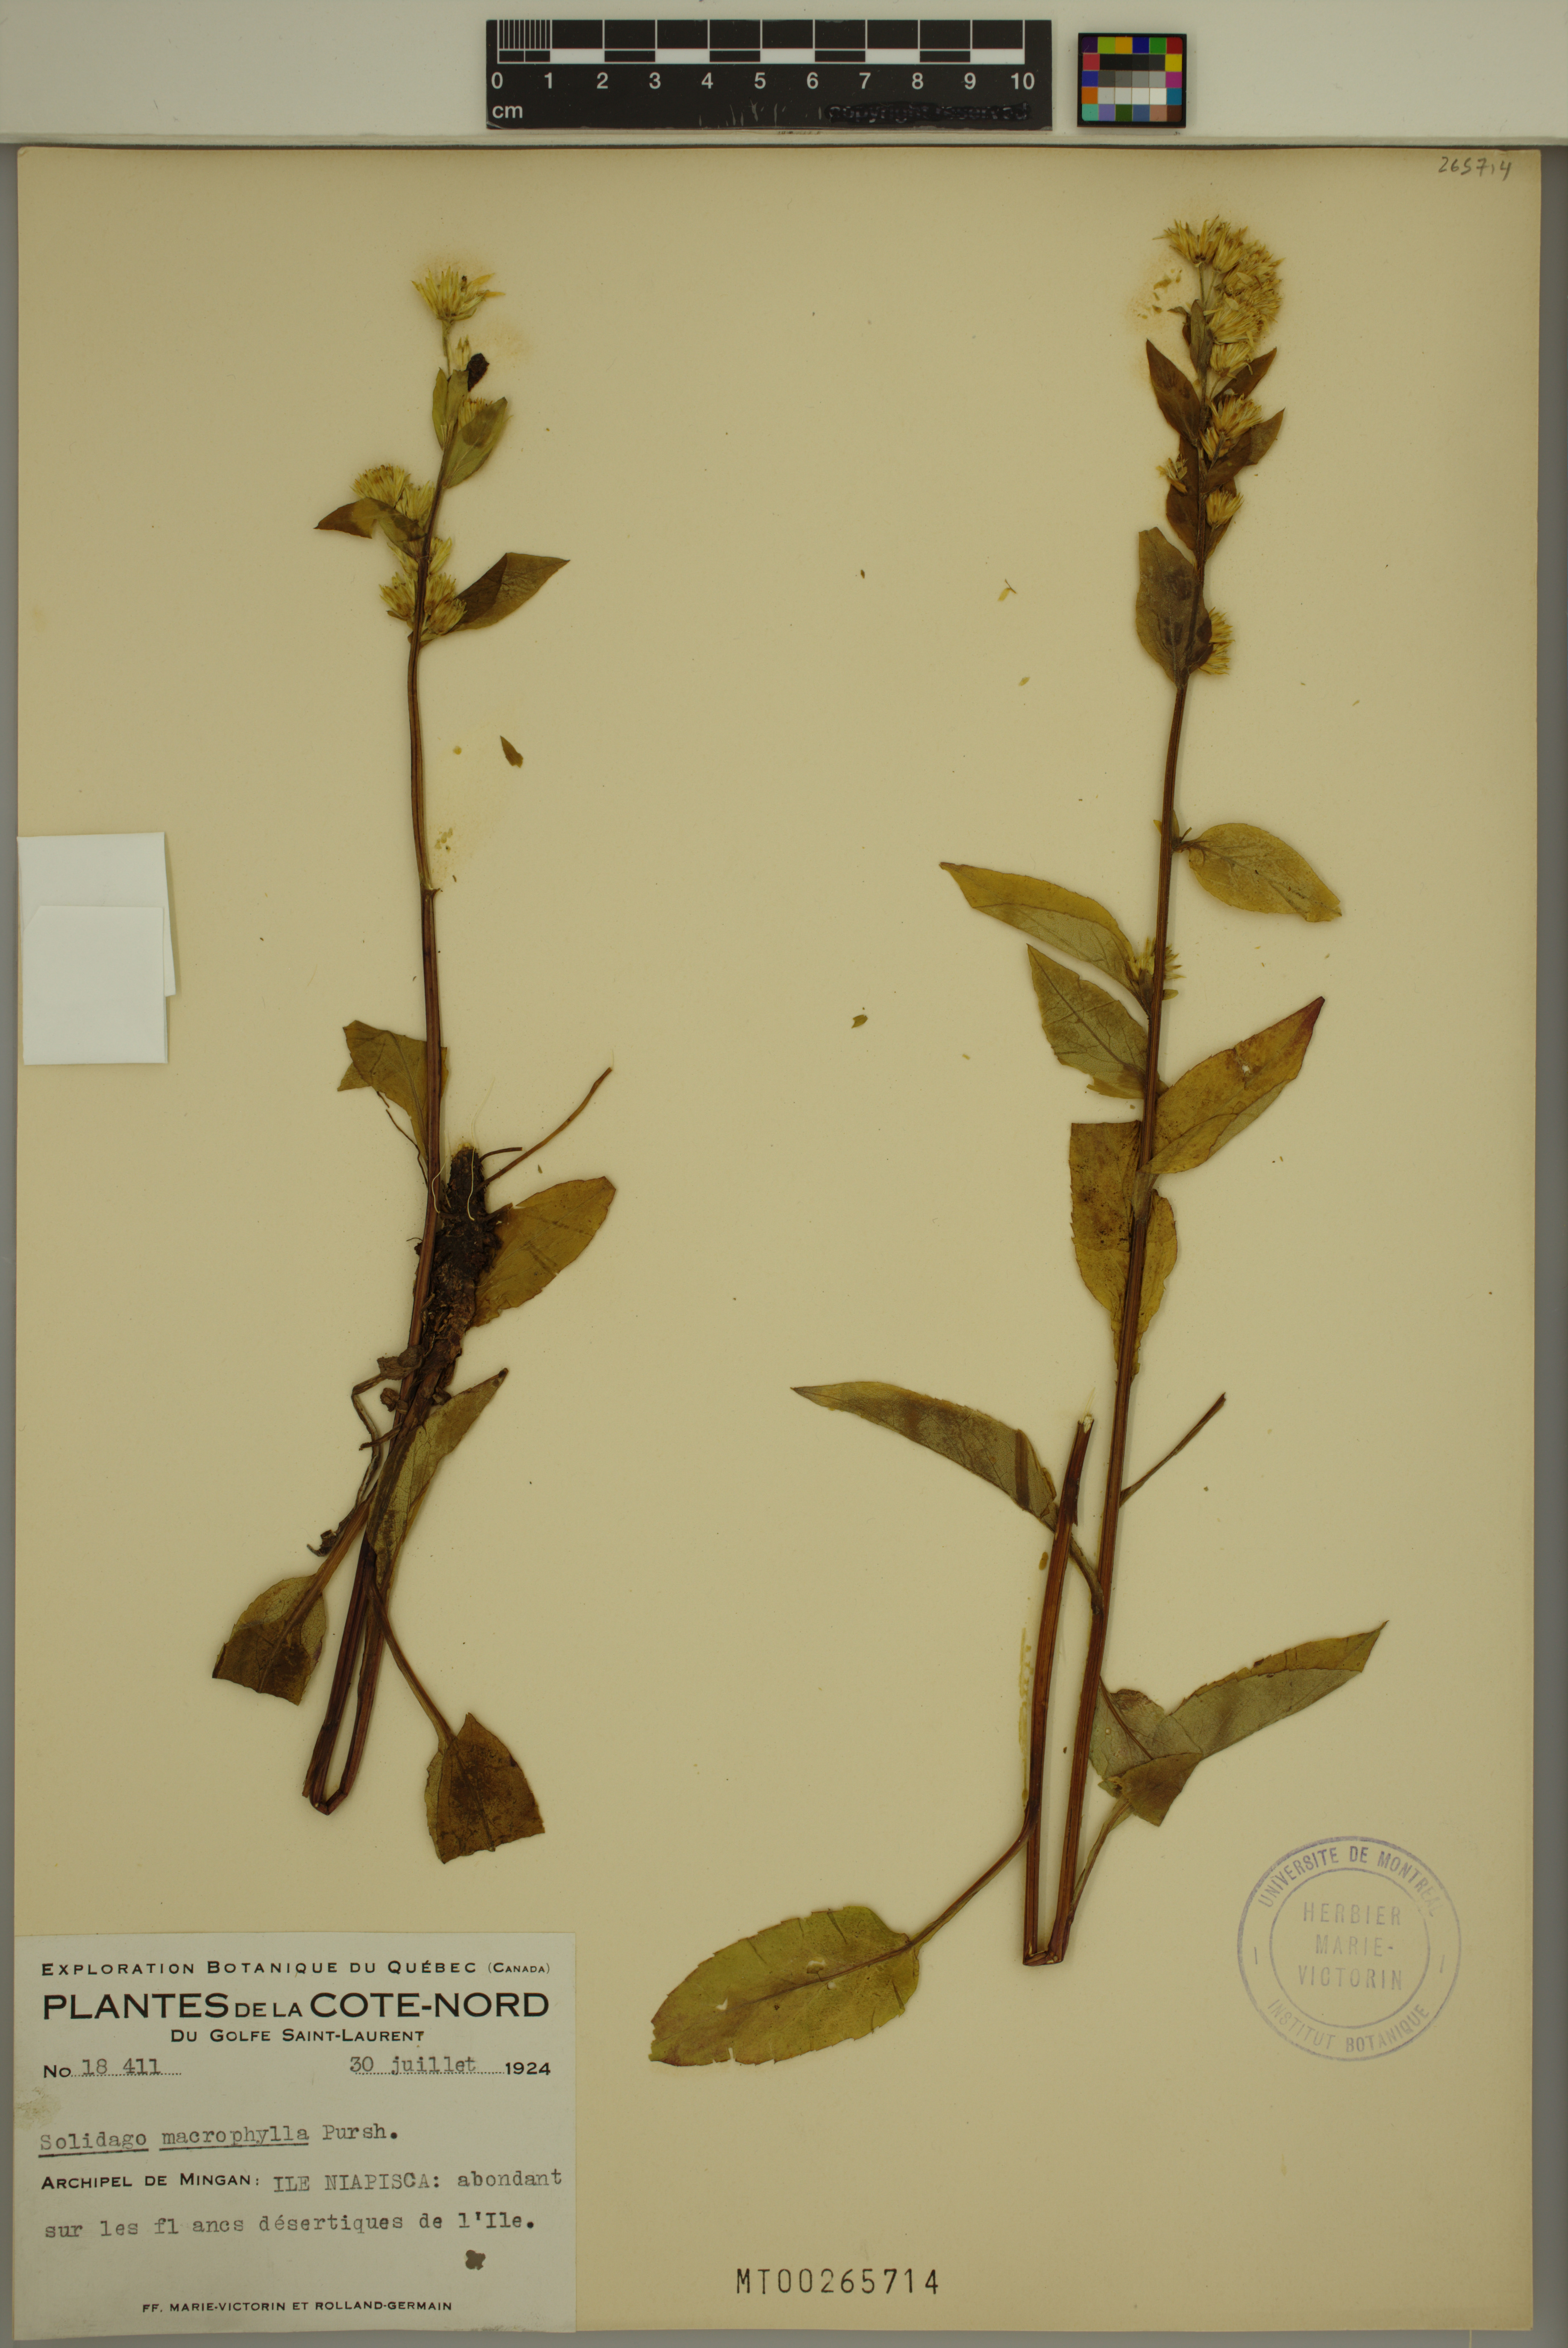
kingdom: Plantae
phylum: Tracheophyta
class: Magnoliopsida
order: Asterales
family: Asteraceae
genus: Solidago
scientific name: Solidago macrophylla
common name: Large-leaved goldenrod
